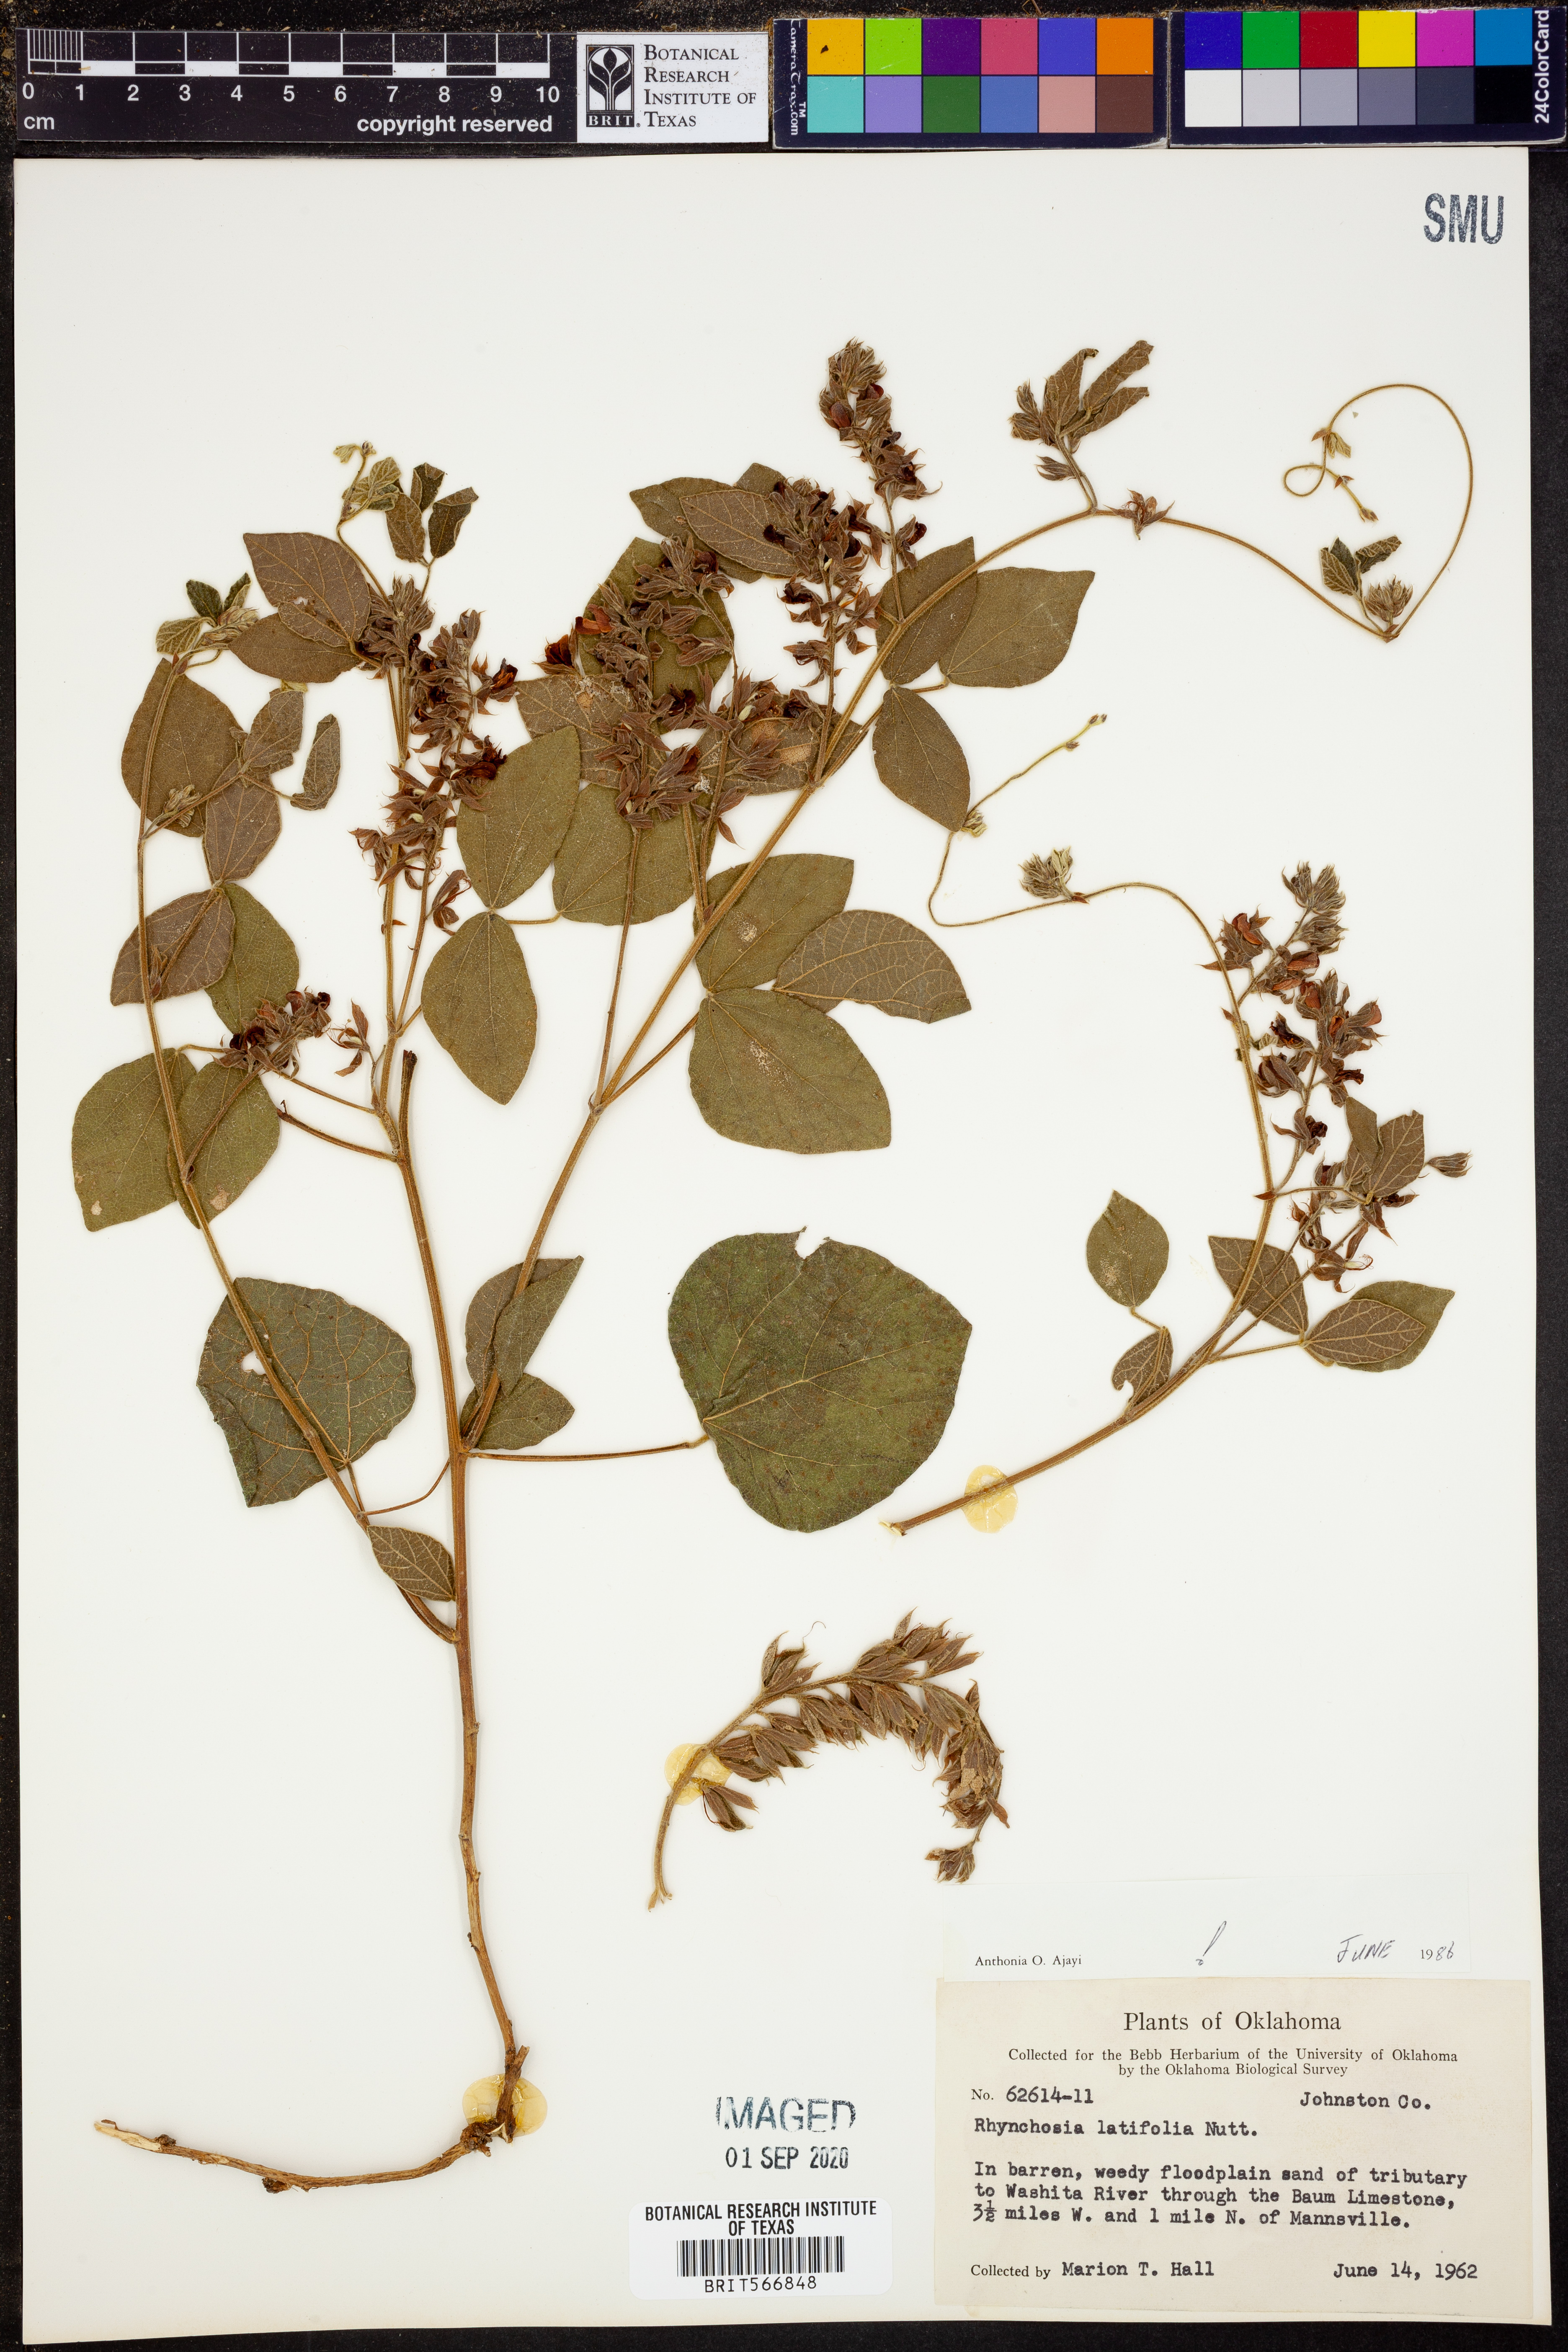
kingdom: Plantae
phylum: Tracheophyta
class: Magnoliopsida
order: Fabales
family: Fabaceae
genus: Rhynchosia
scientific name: Rhynchosia latifolia
